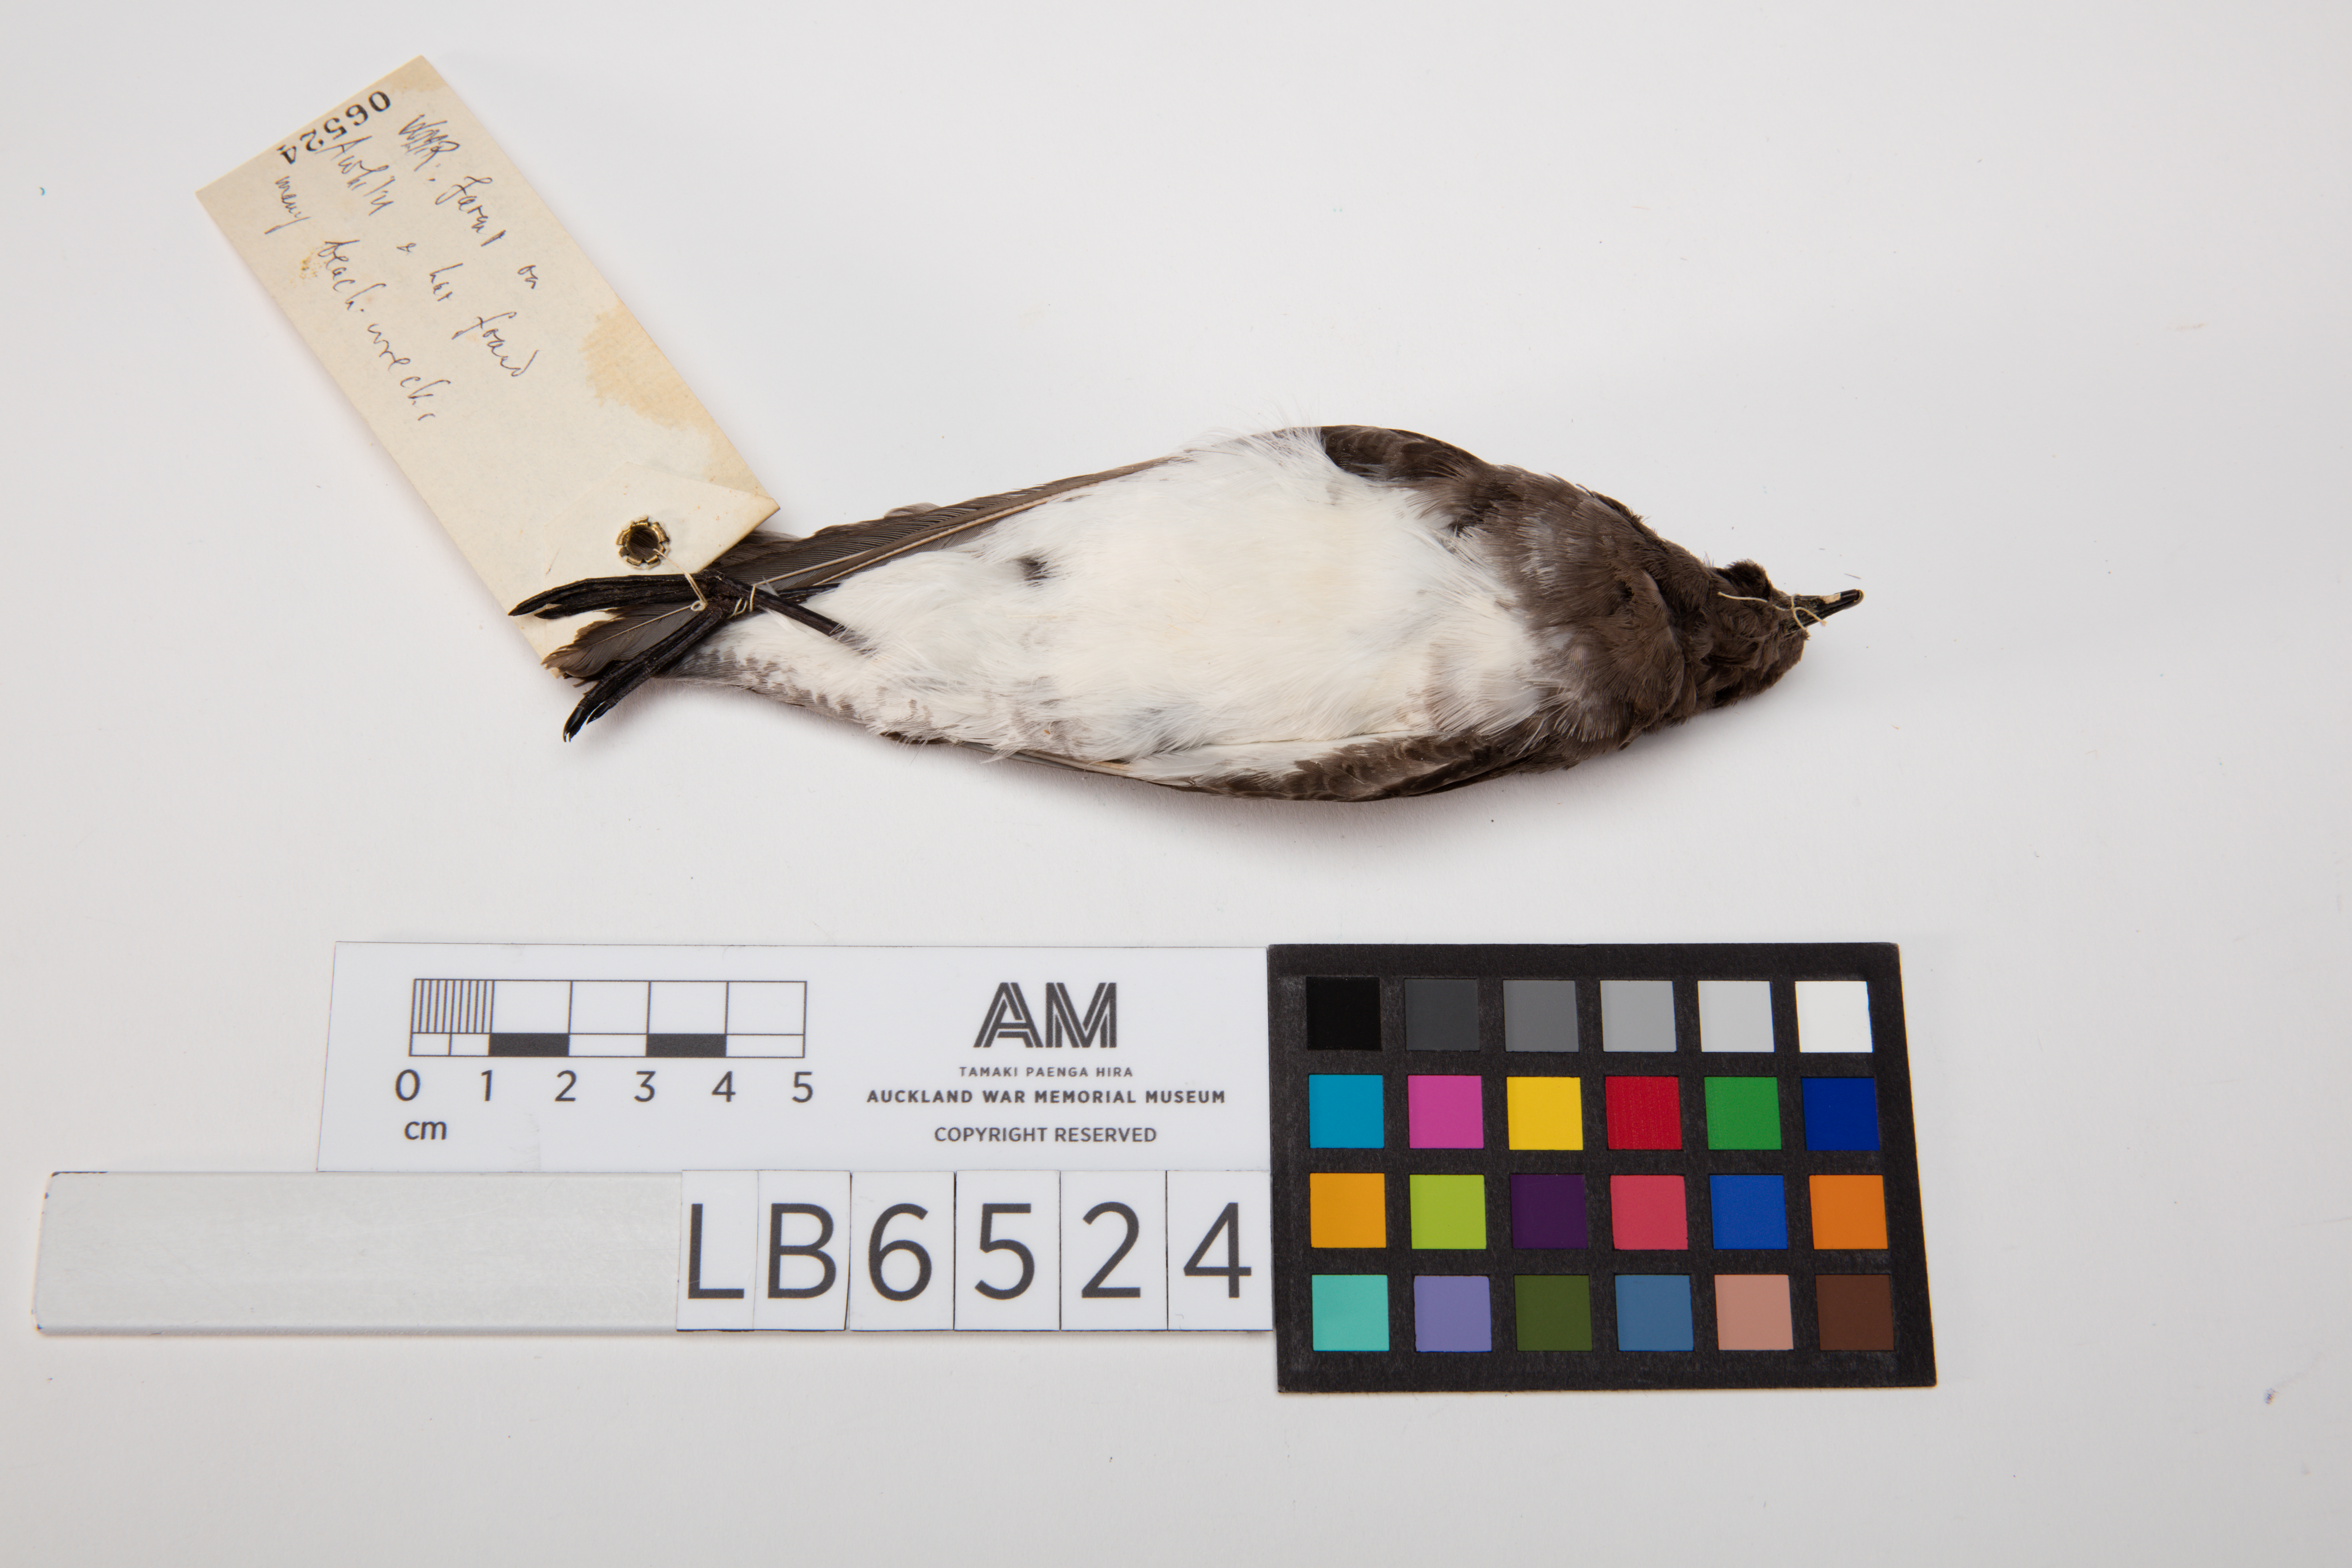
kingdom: Animalia
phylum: Chordata
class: Aves
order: Procellariiformes
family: Hydrobatidae
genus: Garrodia
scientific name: Garrodia nereis
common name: Grey-backed storm petrel
